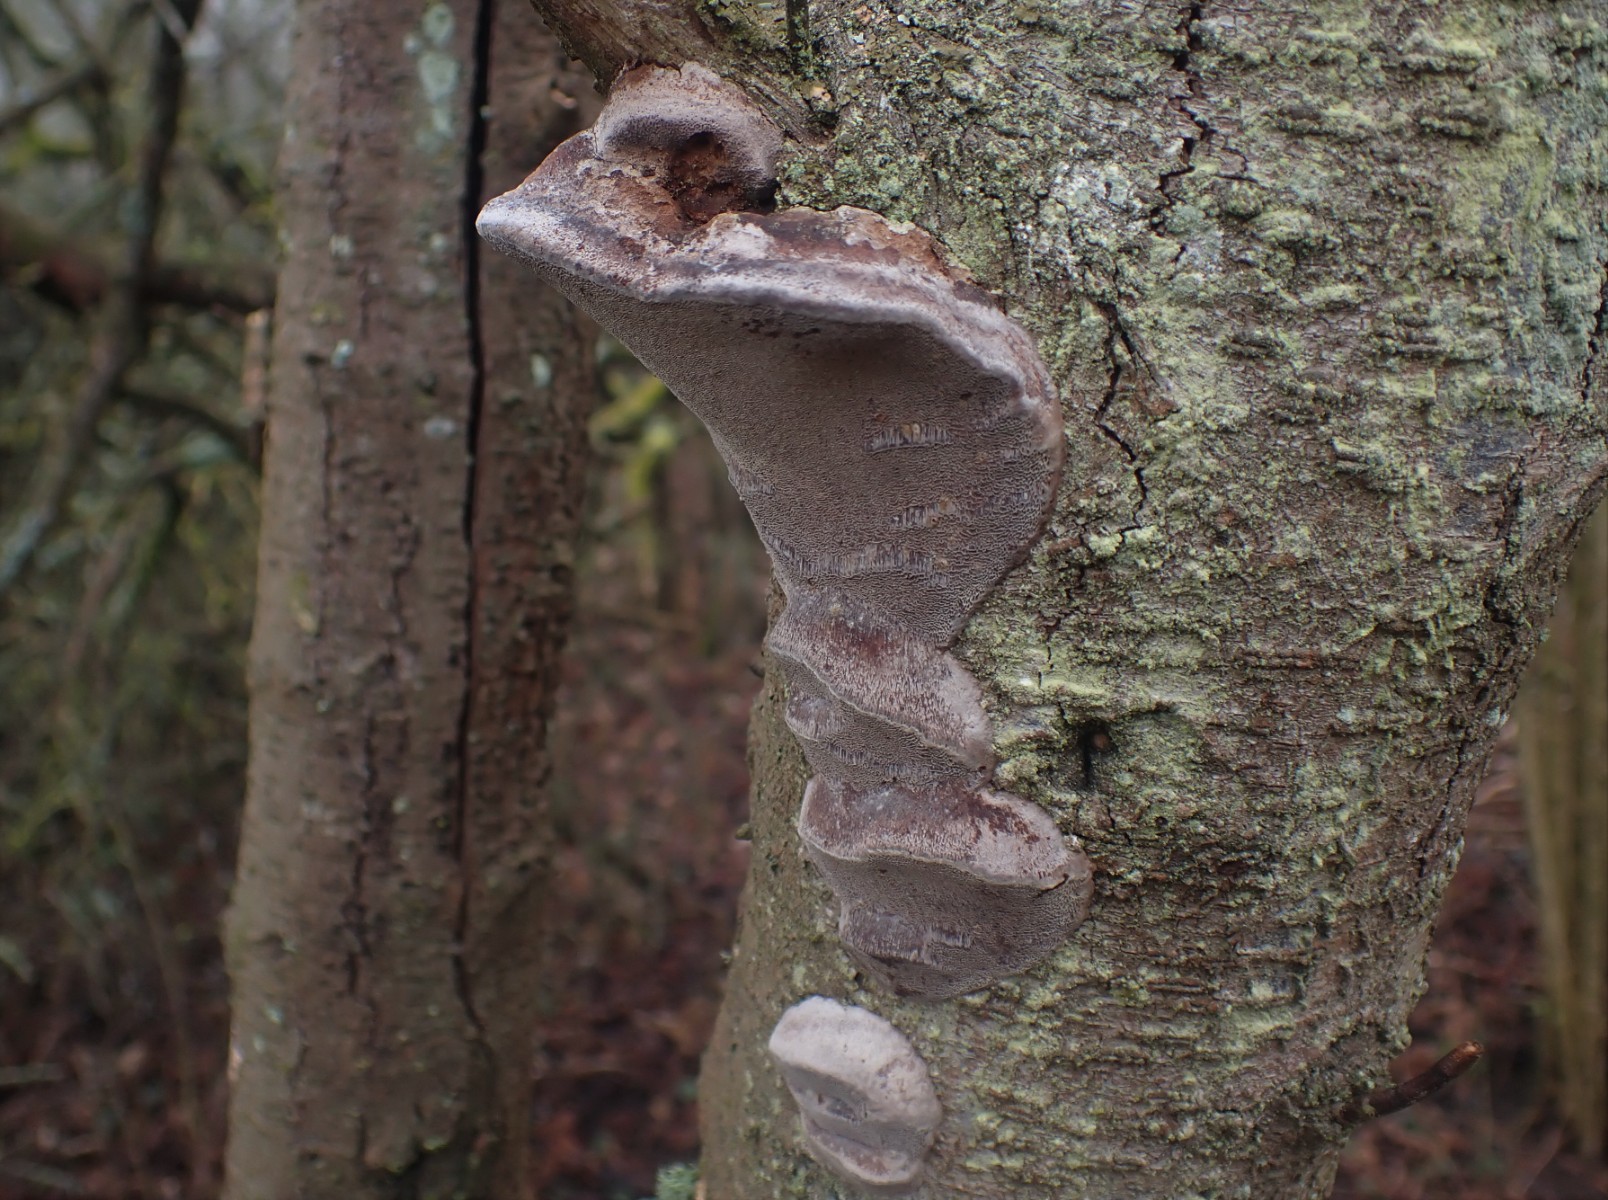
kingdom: Fungi
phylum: Basidiomycota
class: Agaricomycetes
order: Hymenochaetales
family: Hymenochaetaceae
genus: Phellinus
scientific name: Phellinus pomaceus
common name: blomme-ildporesvamp
